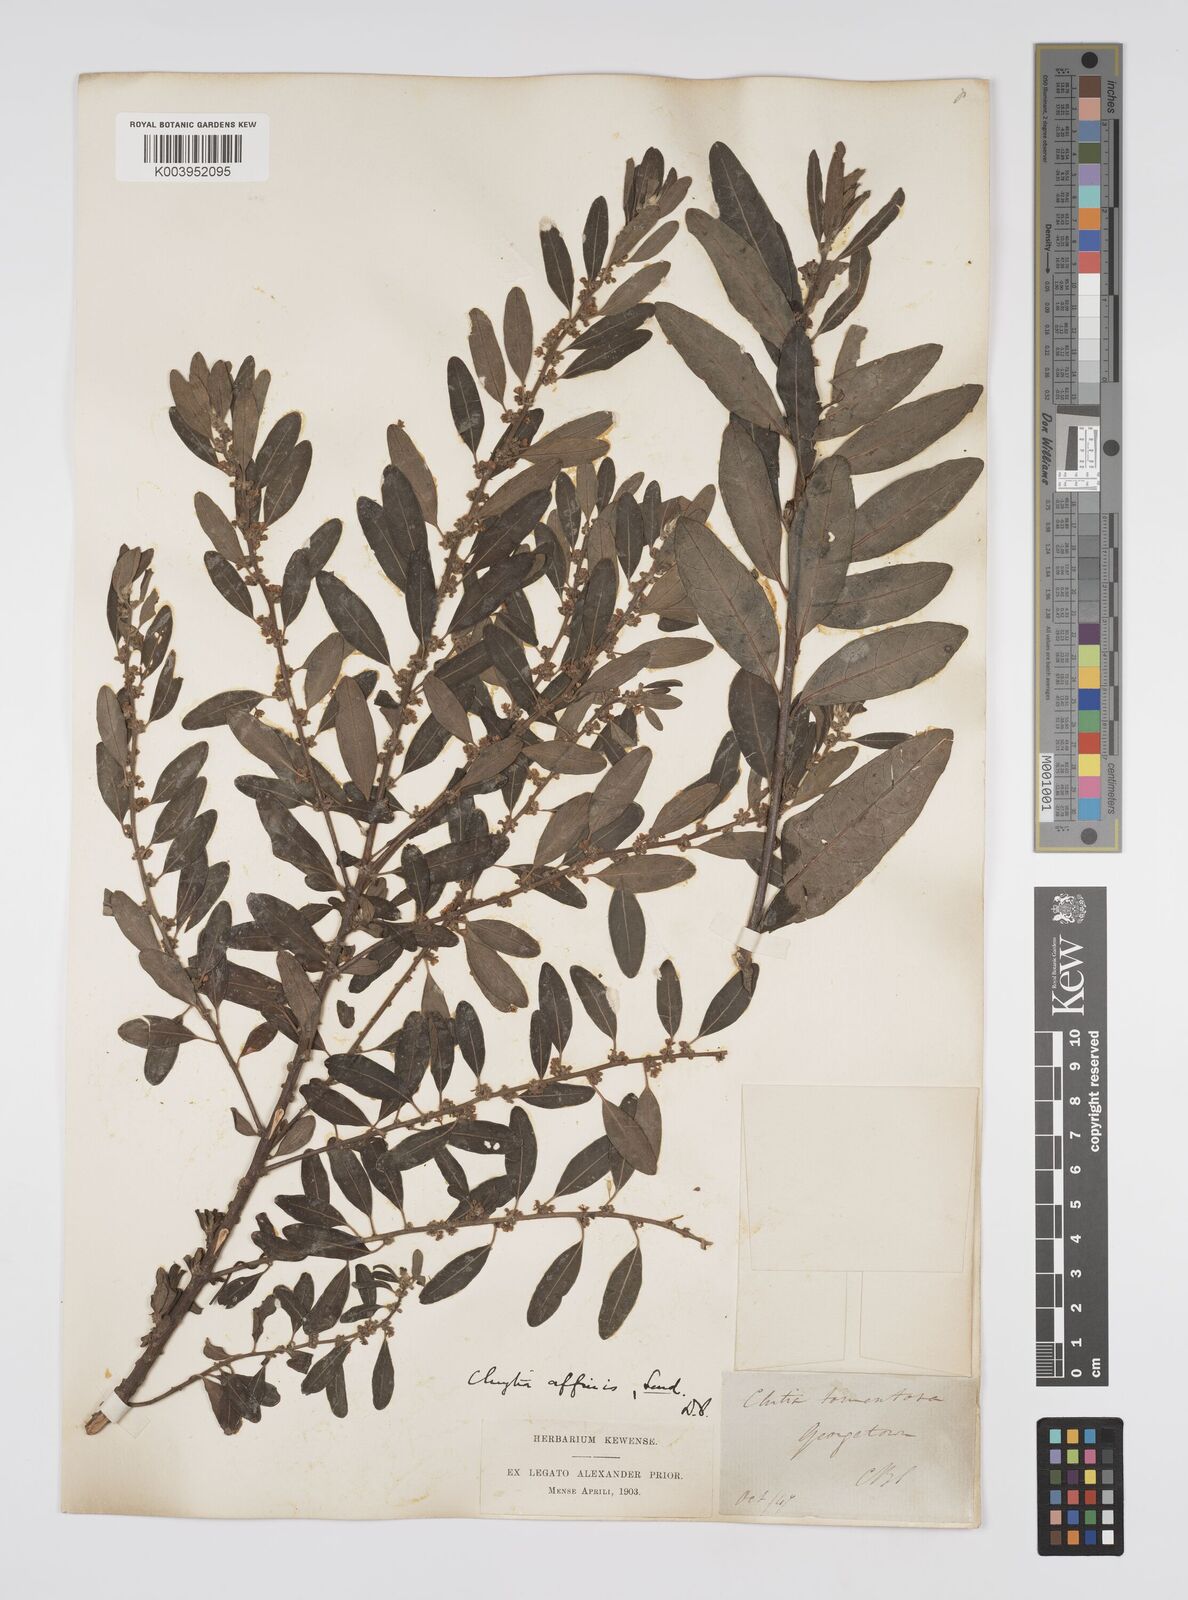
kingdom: Plantae
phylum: Tracheophyta
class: Magnoliopsida
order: Malpighiales
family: Peraceae
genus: Clutia
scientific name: Clutia affinis
